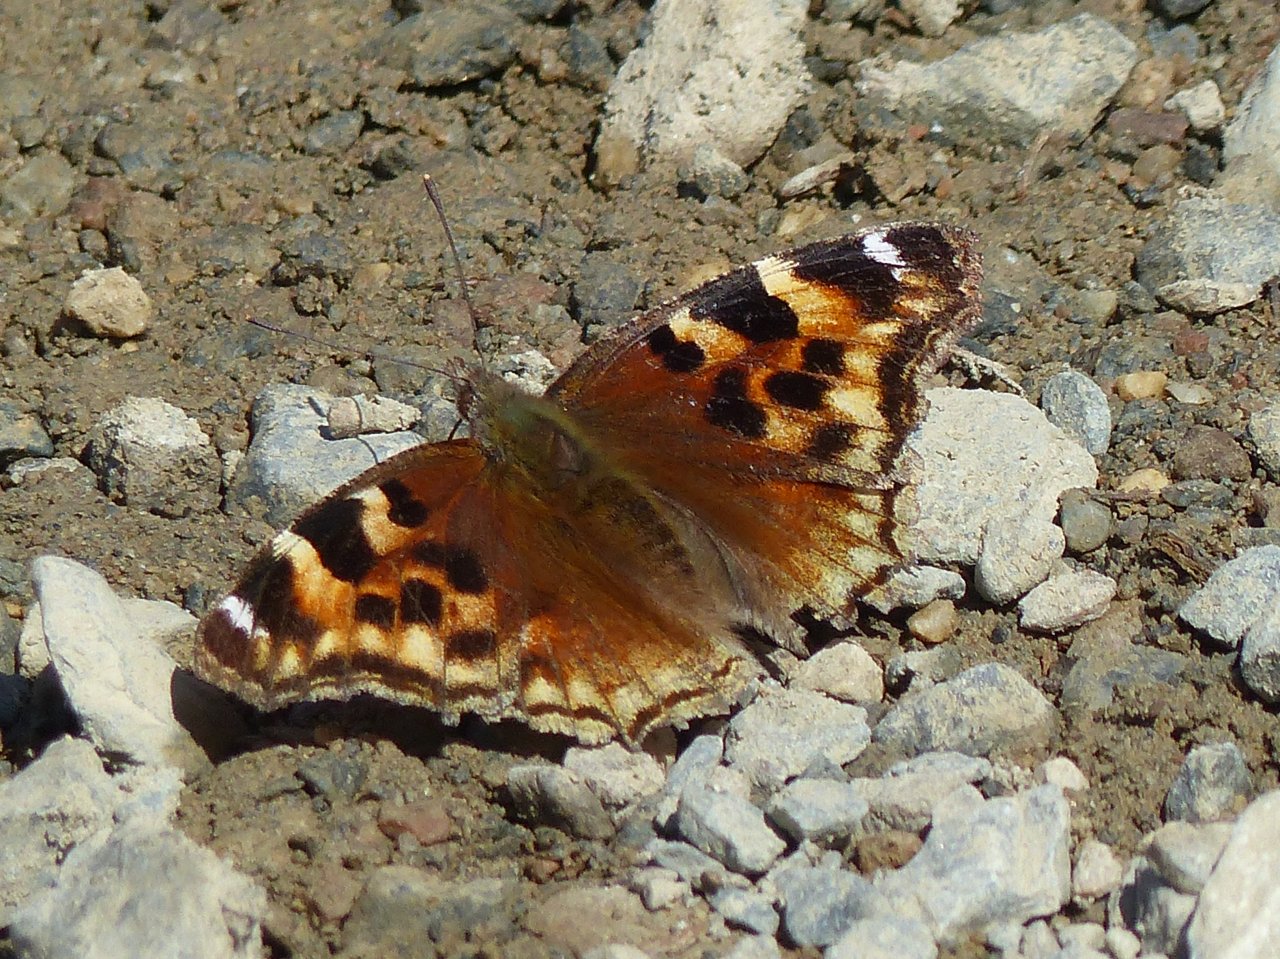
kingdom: Animalia
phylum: Arthropoda
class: Insecta
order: Lepidoptera
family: Nymphalidae
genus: Polygonia
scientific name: Polygonia vaualbum
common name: Compton Tortoiseshell
